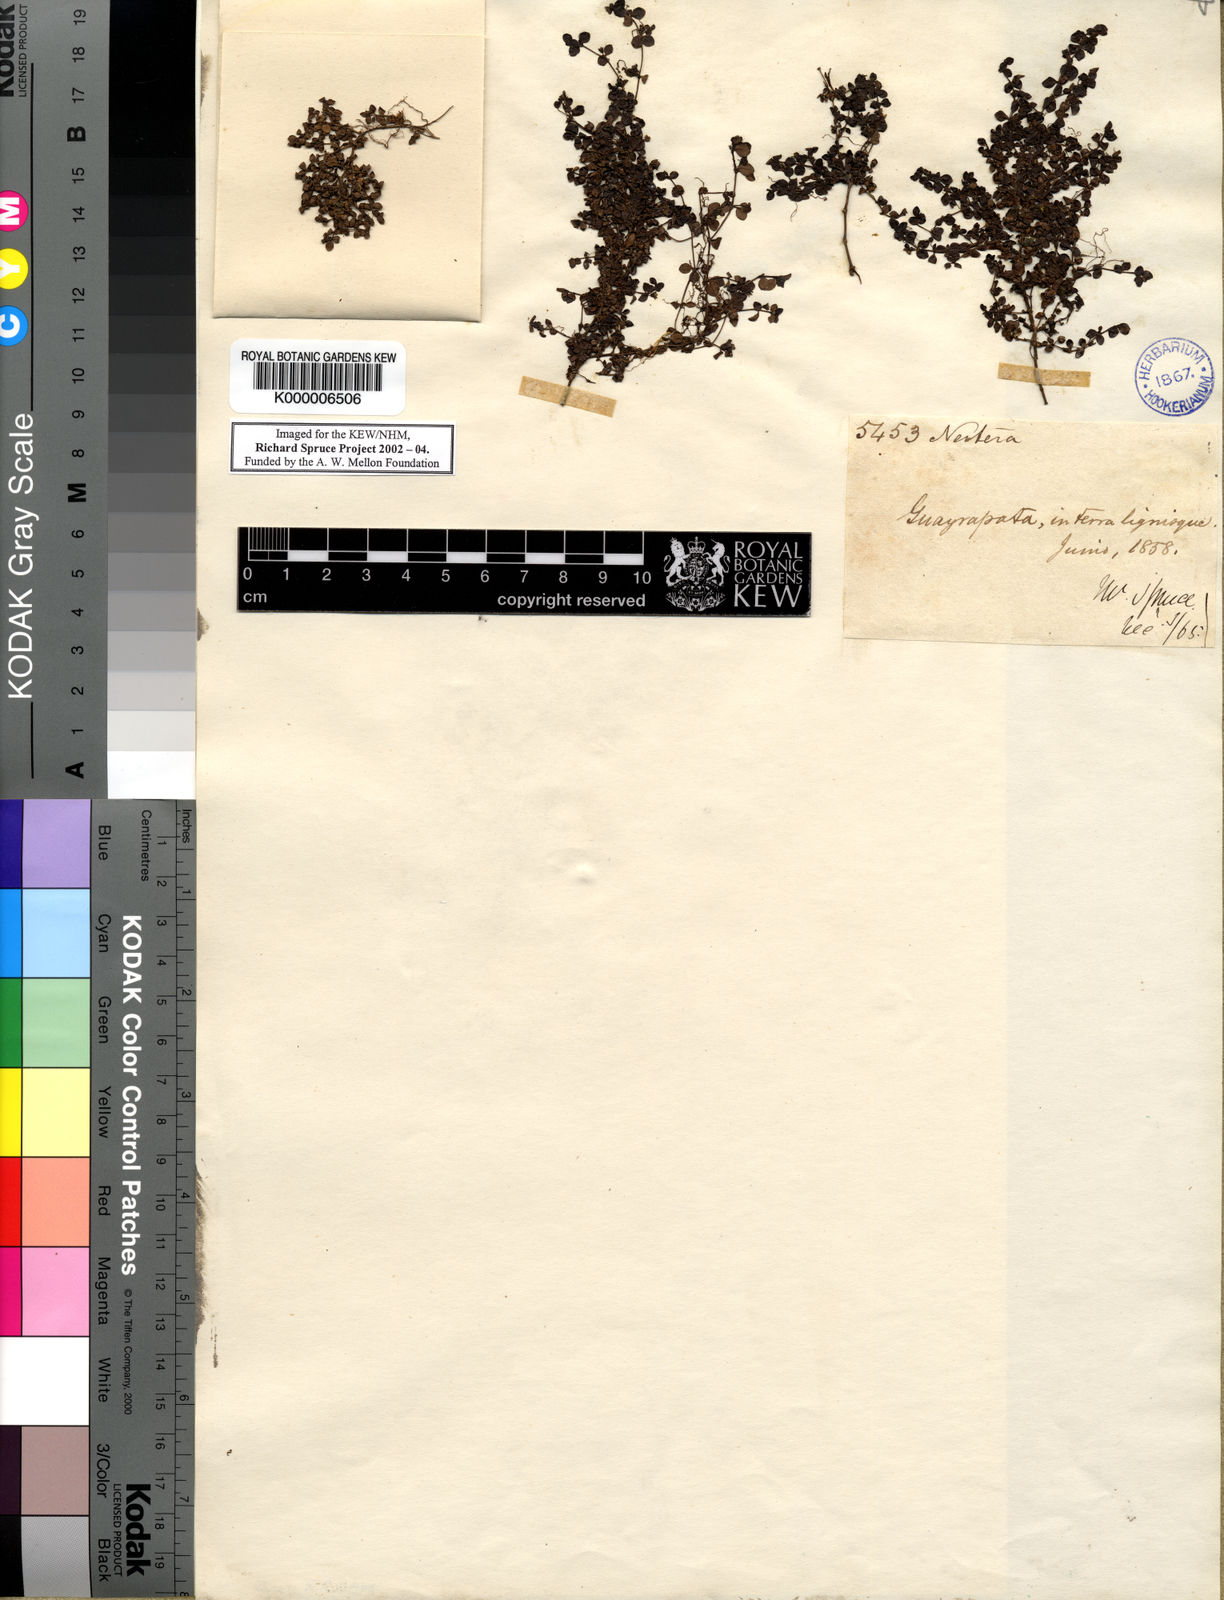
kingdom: Plantae
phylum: Tracheophyta
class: Magnoliopsida
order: Gentianales
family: Rubiaceae
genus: Oldenlandia
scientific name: Oldenlandia neomicrophylla
